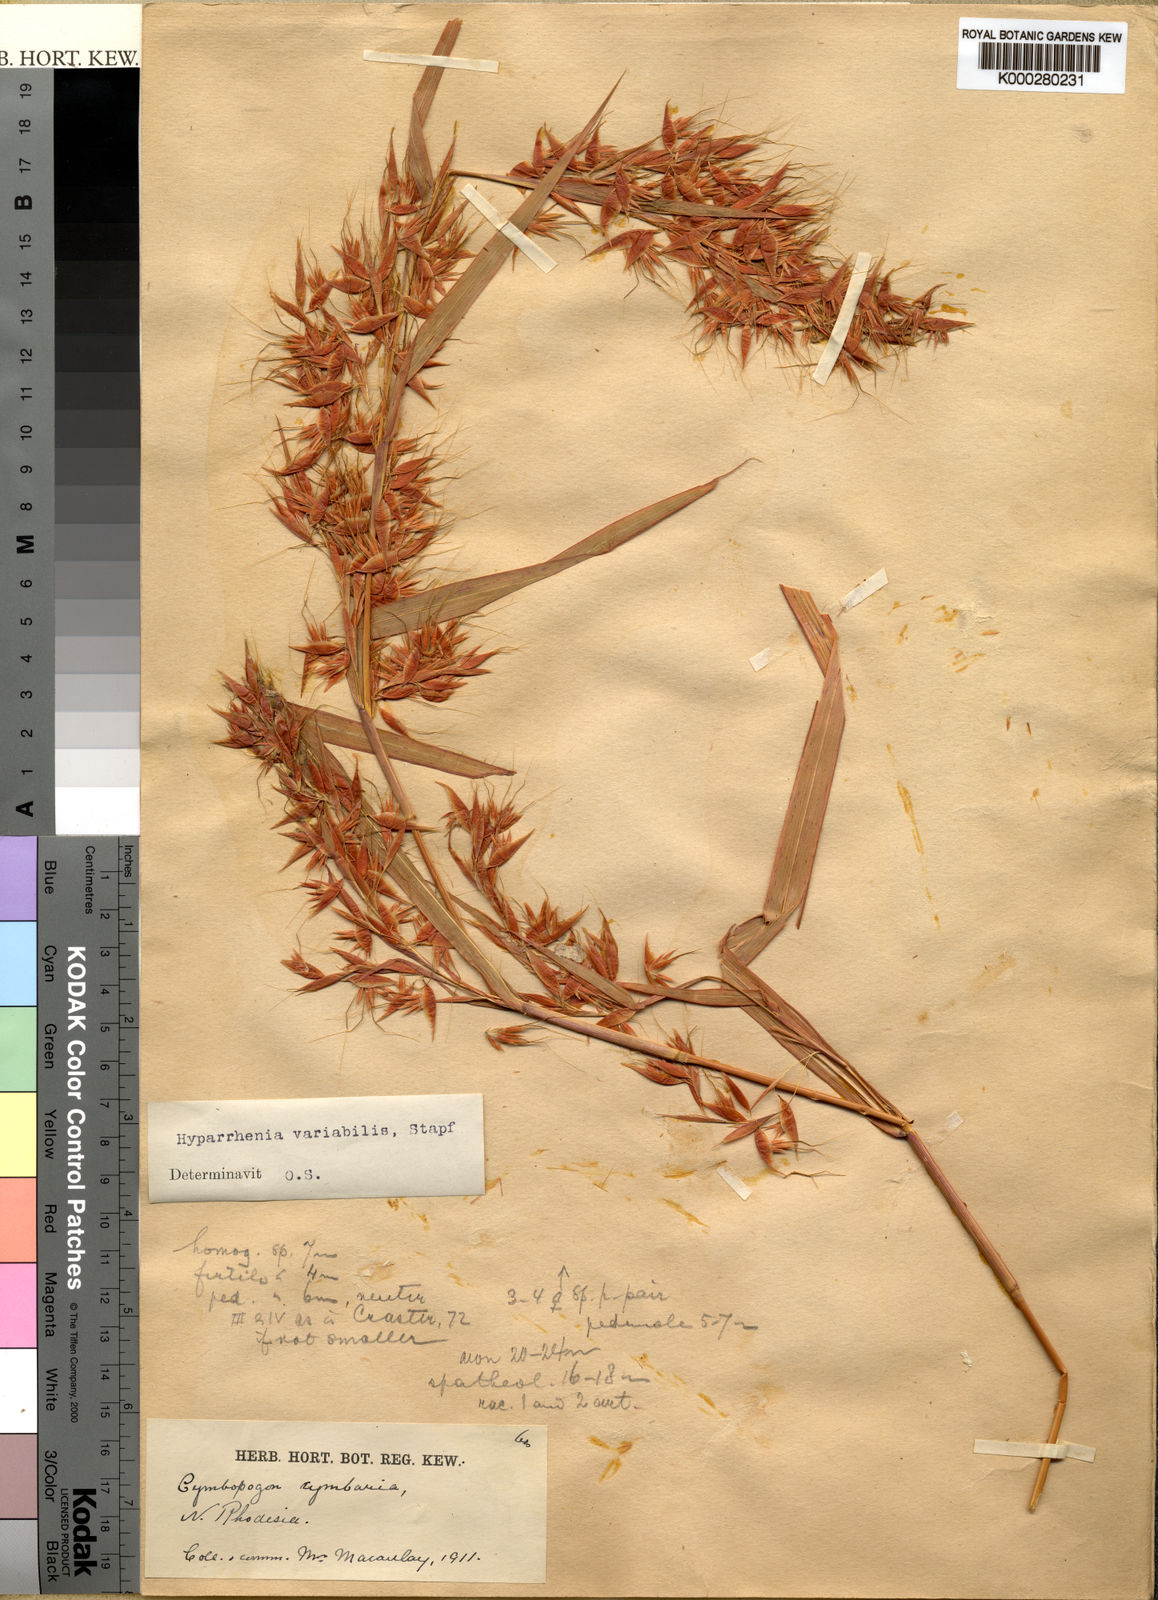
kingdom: Plantae
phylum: Tracheophyta
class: Liliopsida
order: Poales
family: Poaceae
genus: Hyparrhenia
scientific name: Hyparrhenia variabilis
